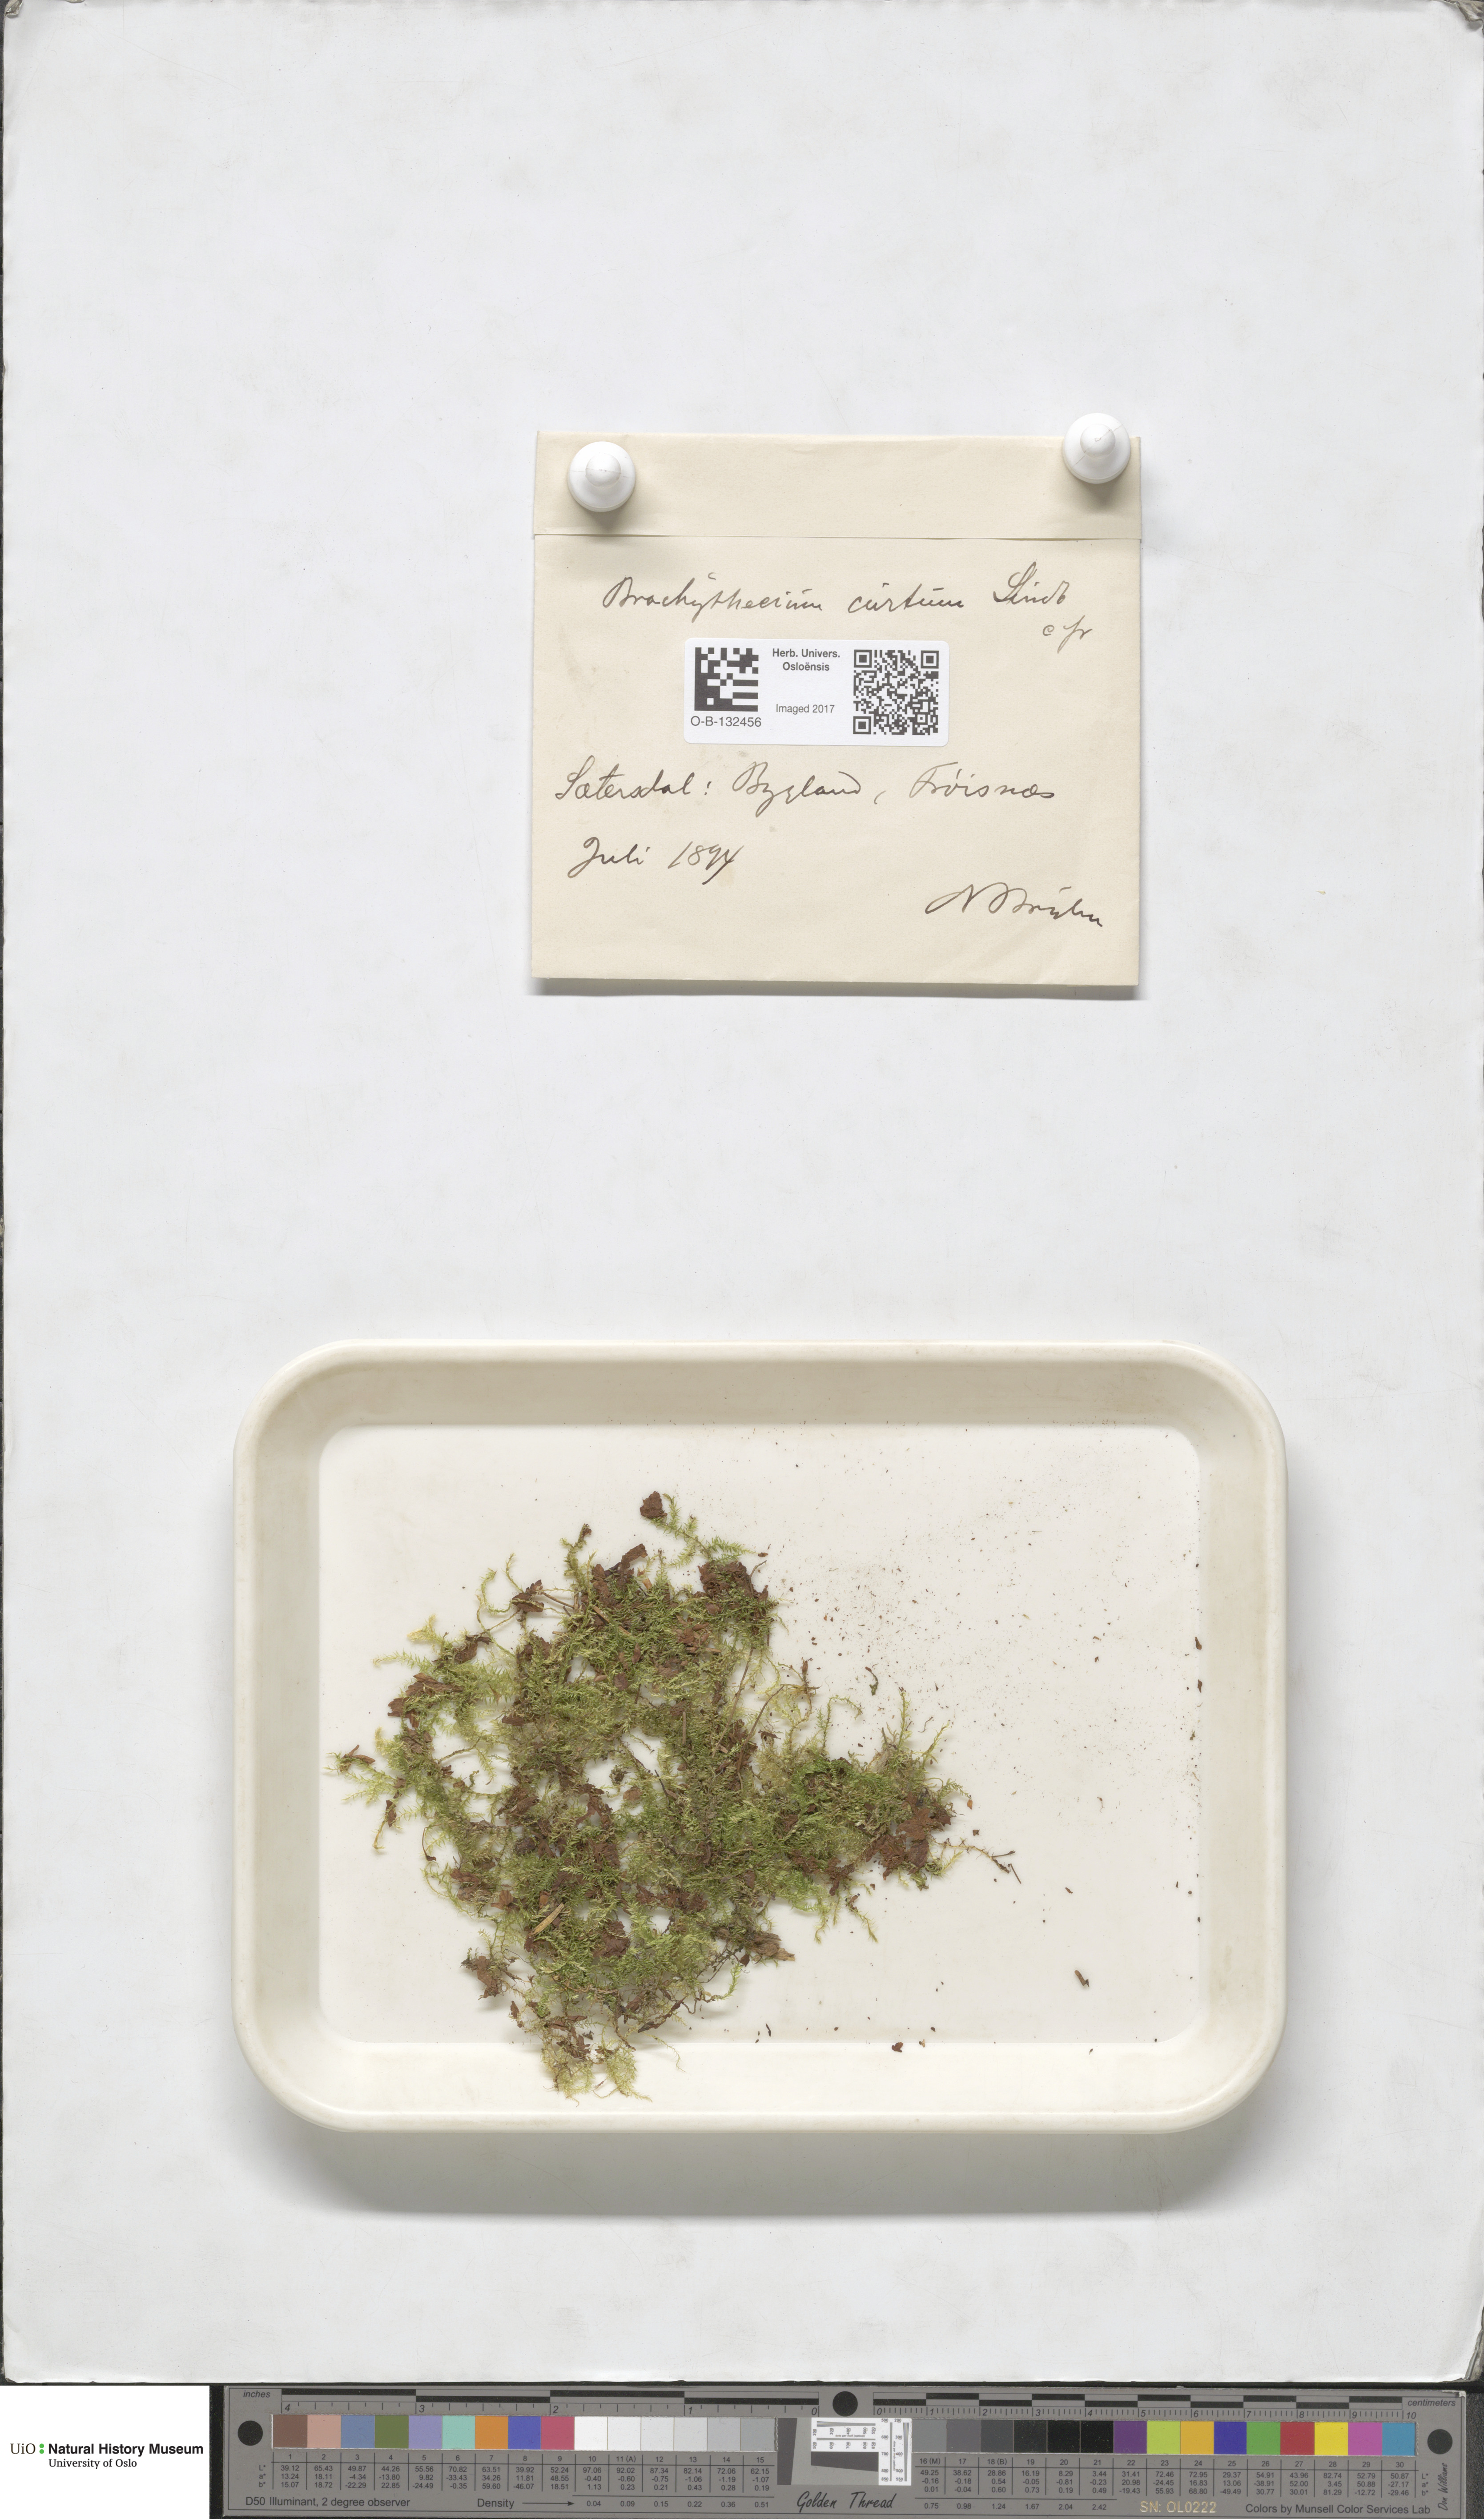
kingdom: Plantae
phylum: Bryophyta
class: Bryopsida
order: Hypnales
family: Brachytheciaceae
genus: Sciuro-hypnum
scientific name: Sciuro-hypnum oedipodium
